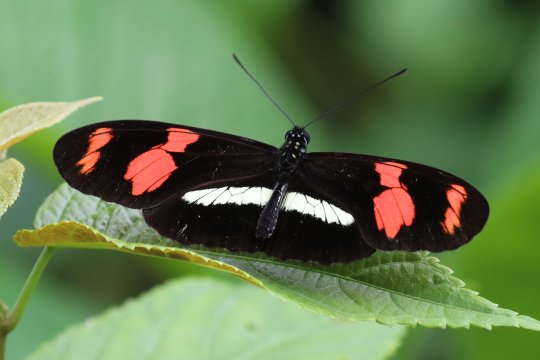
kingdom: Animalia
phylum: Arthropoda
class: Insecta
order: Lepidoptera
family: Nymphalidae
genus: Heliconius
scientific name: Heliconius telesiphe
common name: telesiphe longwing
